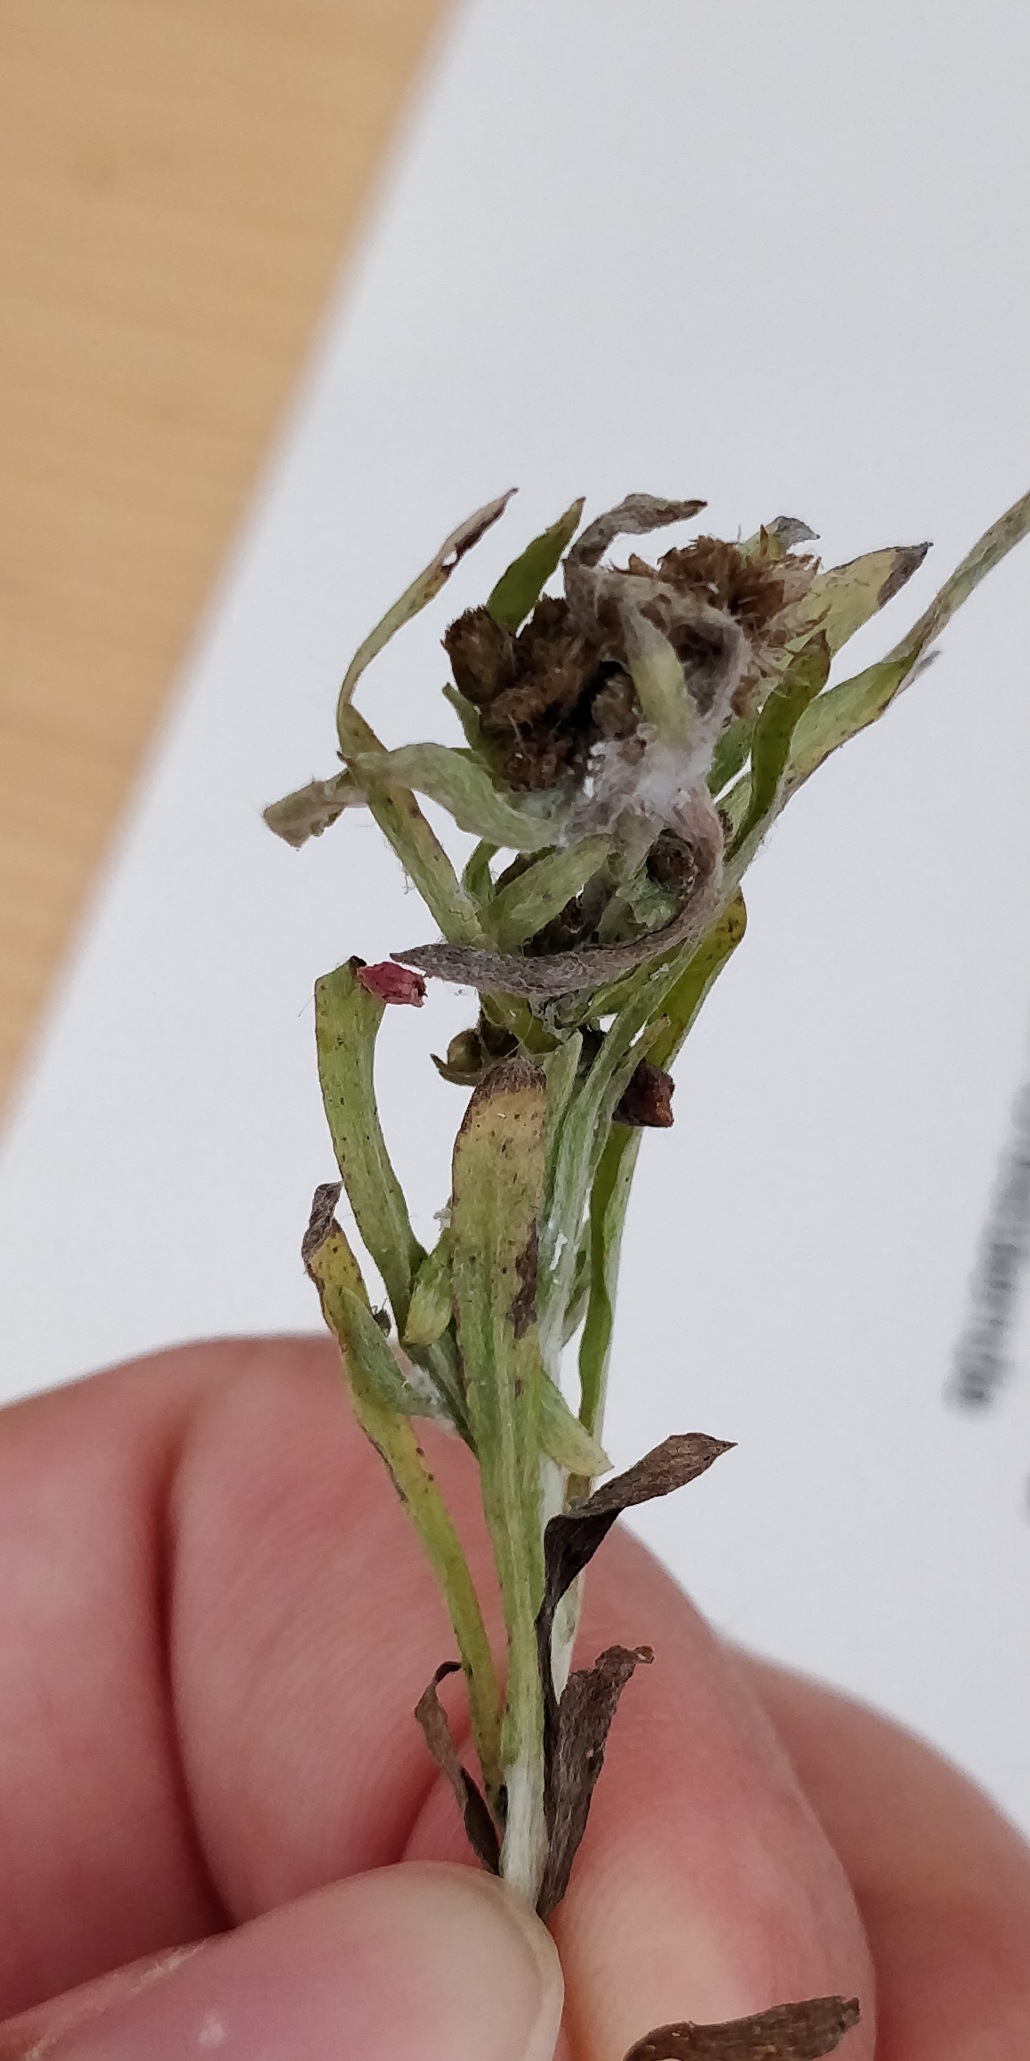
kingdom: Animalia
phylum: Arthropoda
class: Insecta
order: Hemiptera
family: Aphididae
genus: Pemphigus
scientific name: Pemphigus populinigrae
